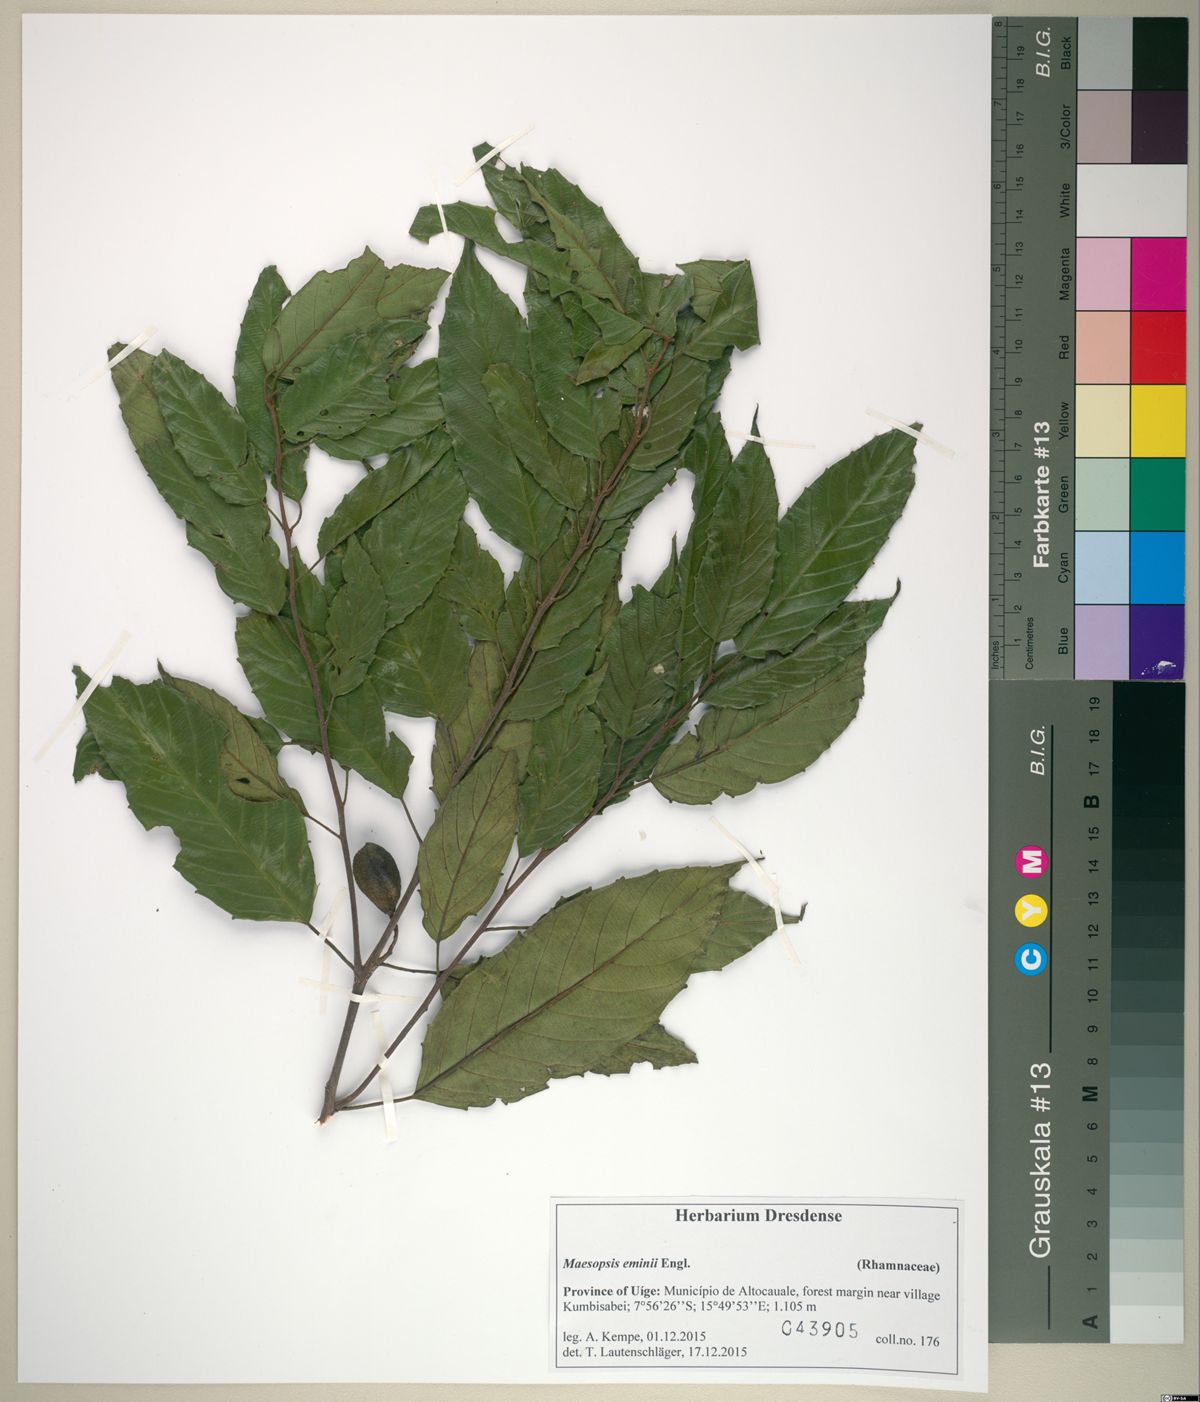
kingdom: Plantae
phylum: Tracheophyta
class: Magnoliopsida
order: Rosales
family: Rhamnaceae
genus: Maesopsis
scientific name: Maesopsis eminii
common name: Umbrella tree
